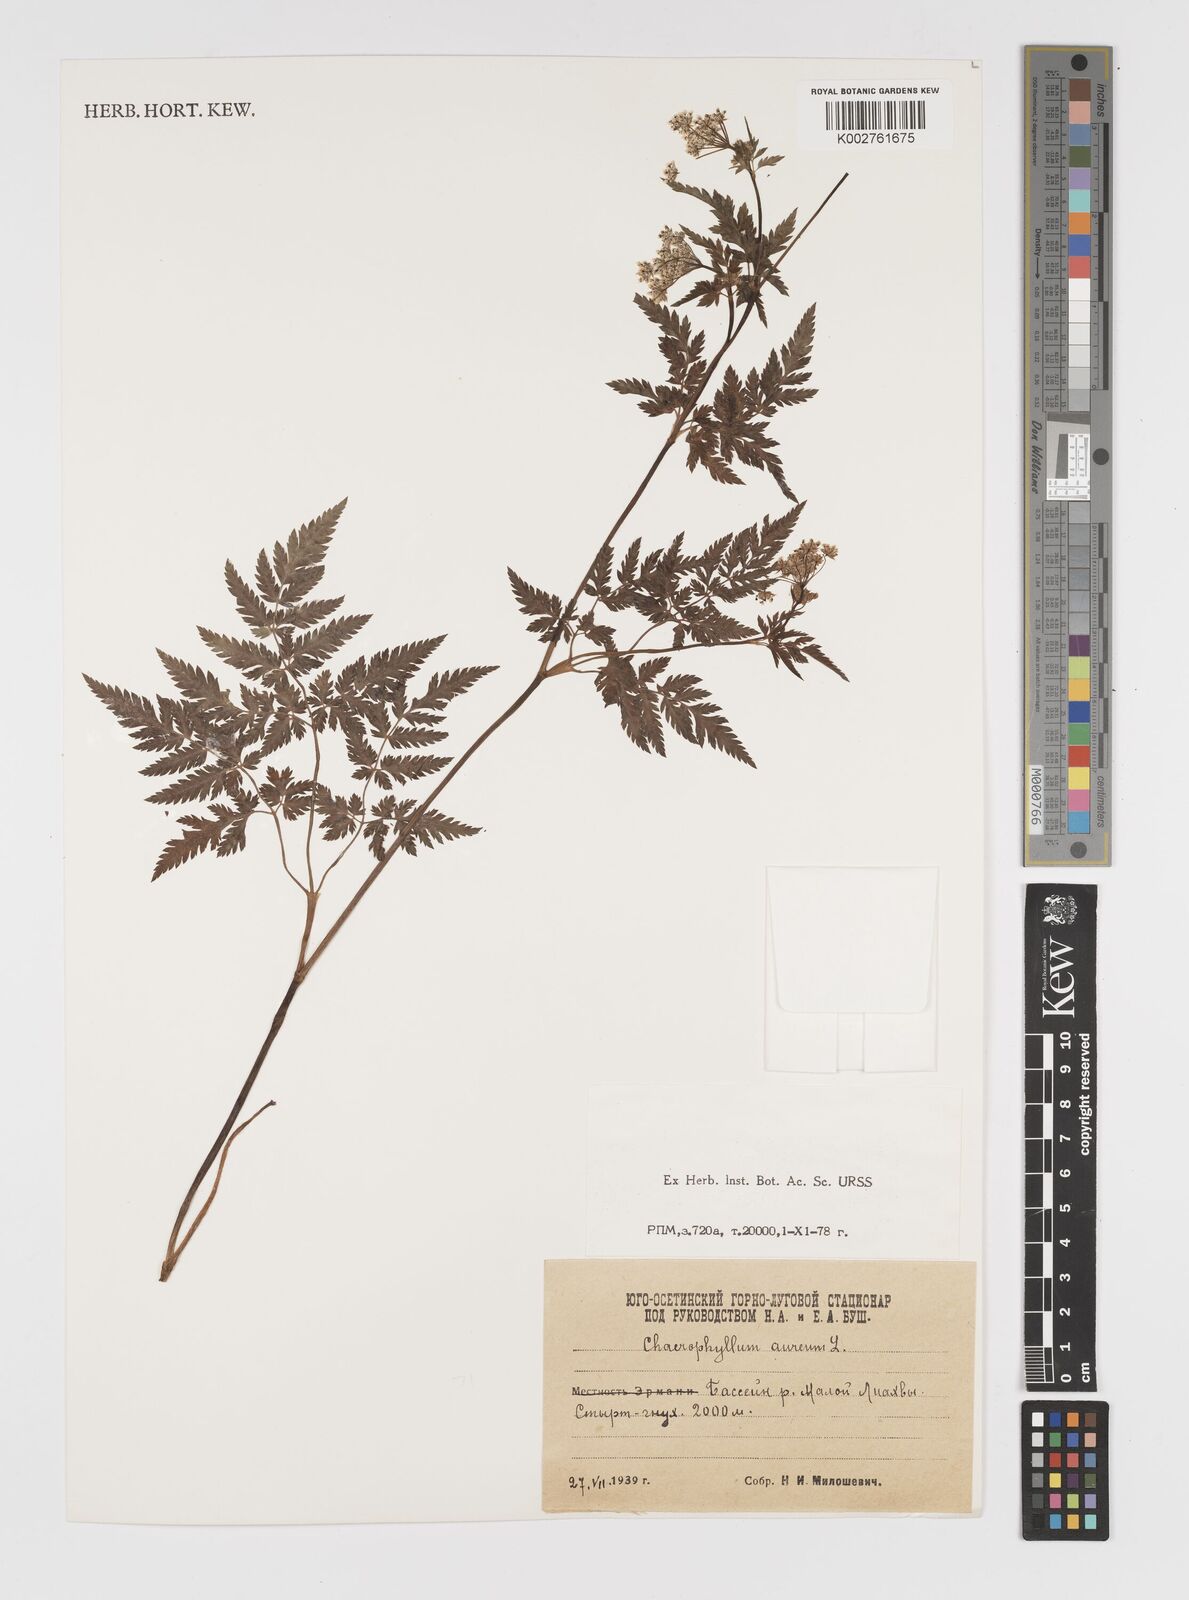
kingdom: Plantae
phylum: Tracheophyta
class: Magnoliopsida
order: Apiales
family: Apiaceae
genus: Chaerophyllum
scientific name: Chaerophyllum aureum
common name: Golden chervil
